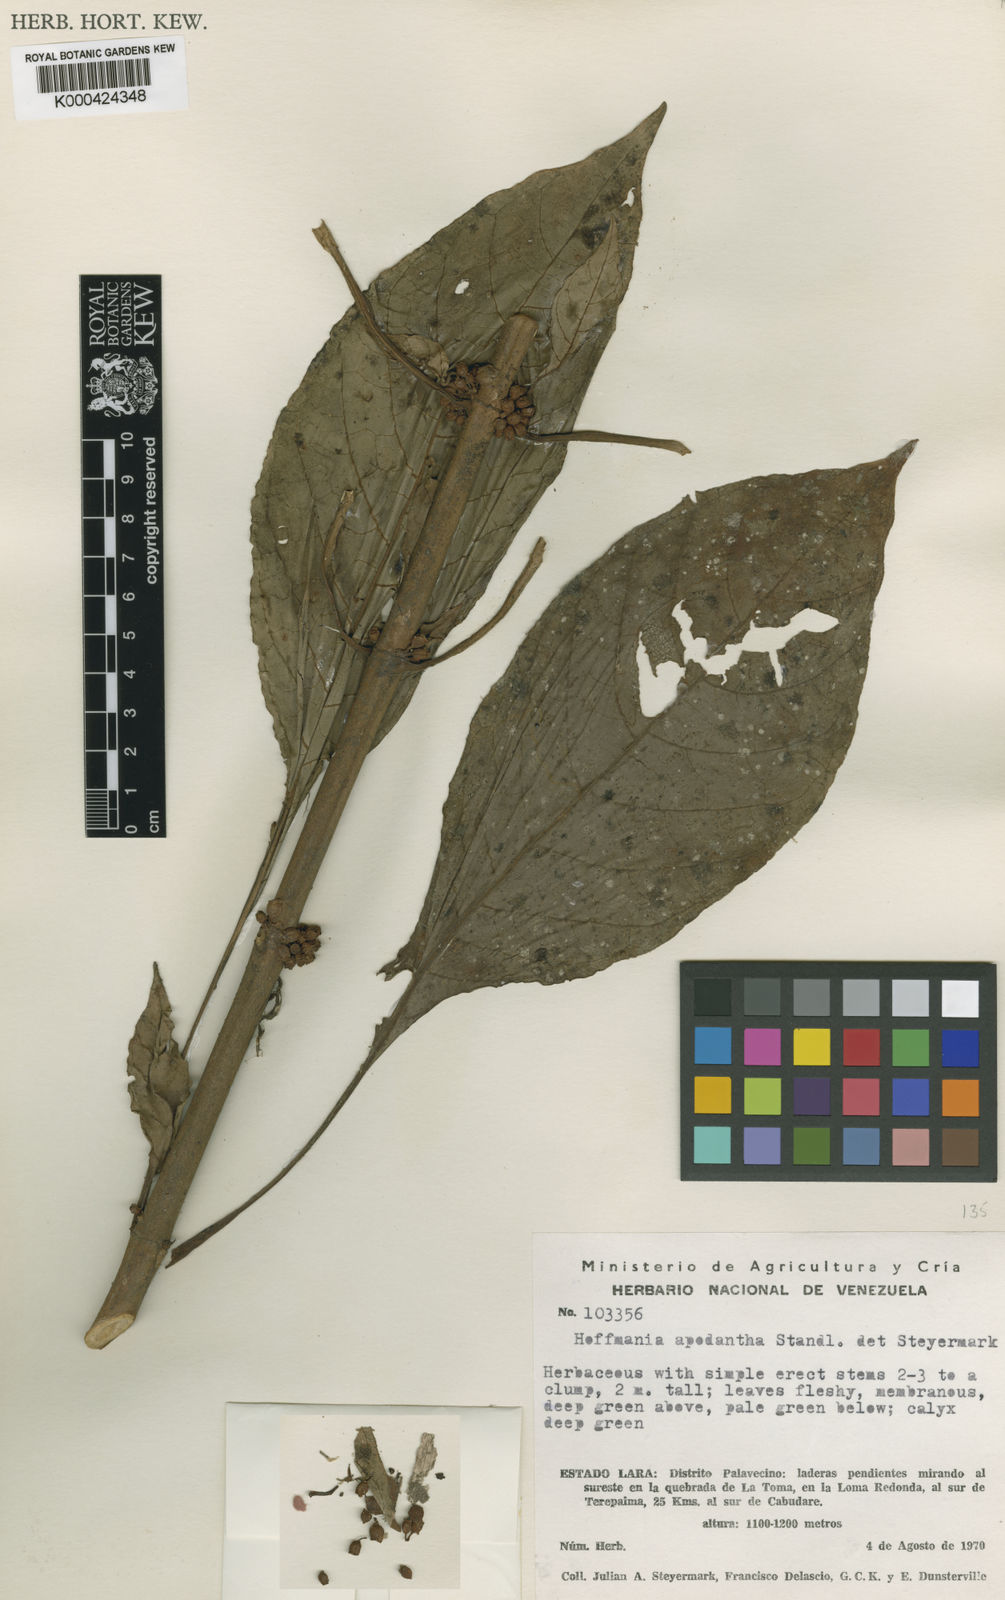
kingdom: Plantae
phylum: Tracheophyta
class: Magnoliopsida
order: Gentianales
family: Rubiaceae
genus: Hoffmannia
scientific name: Hoffmannia apodantha
